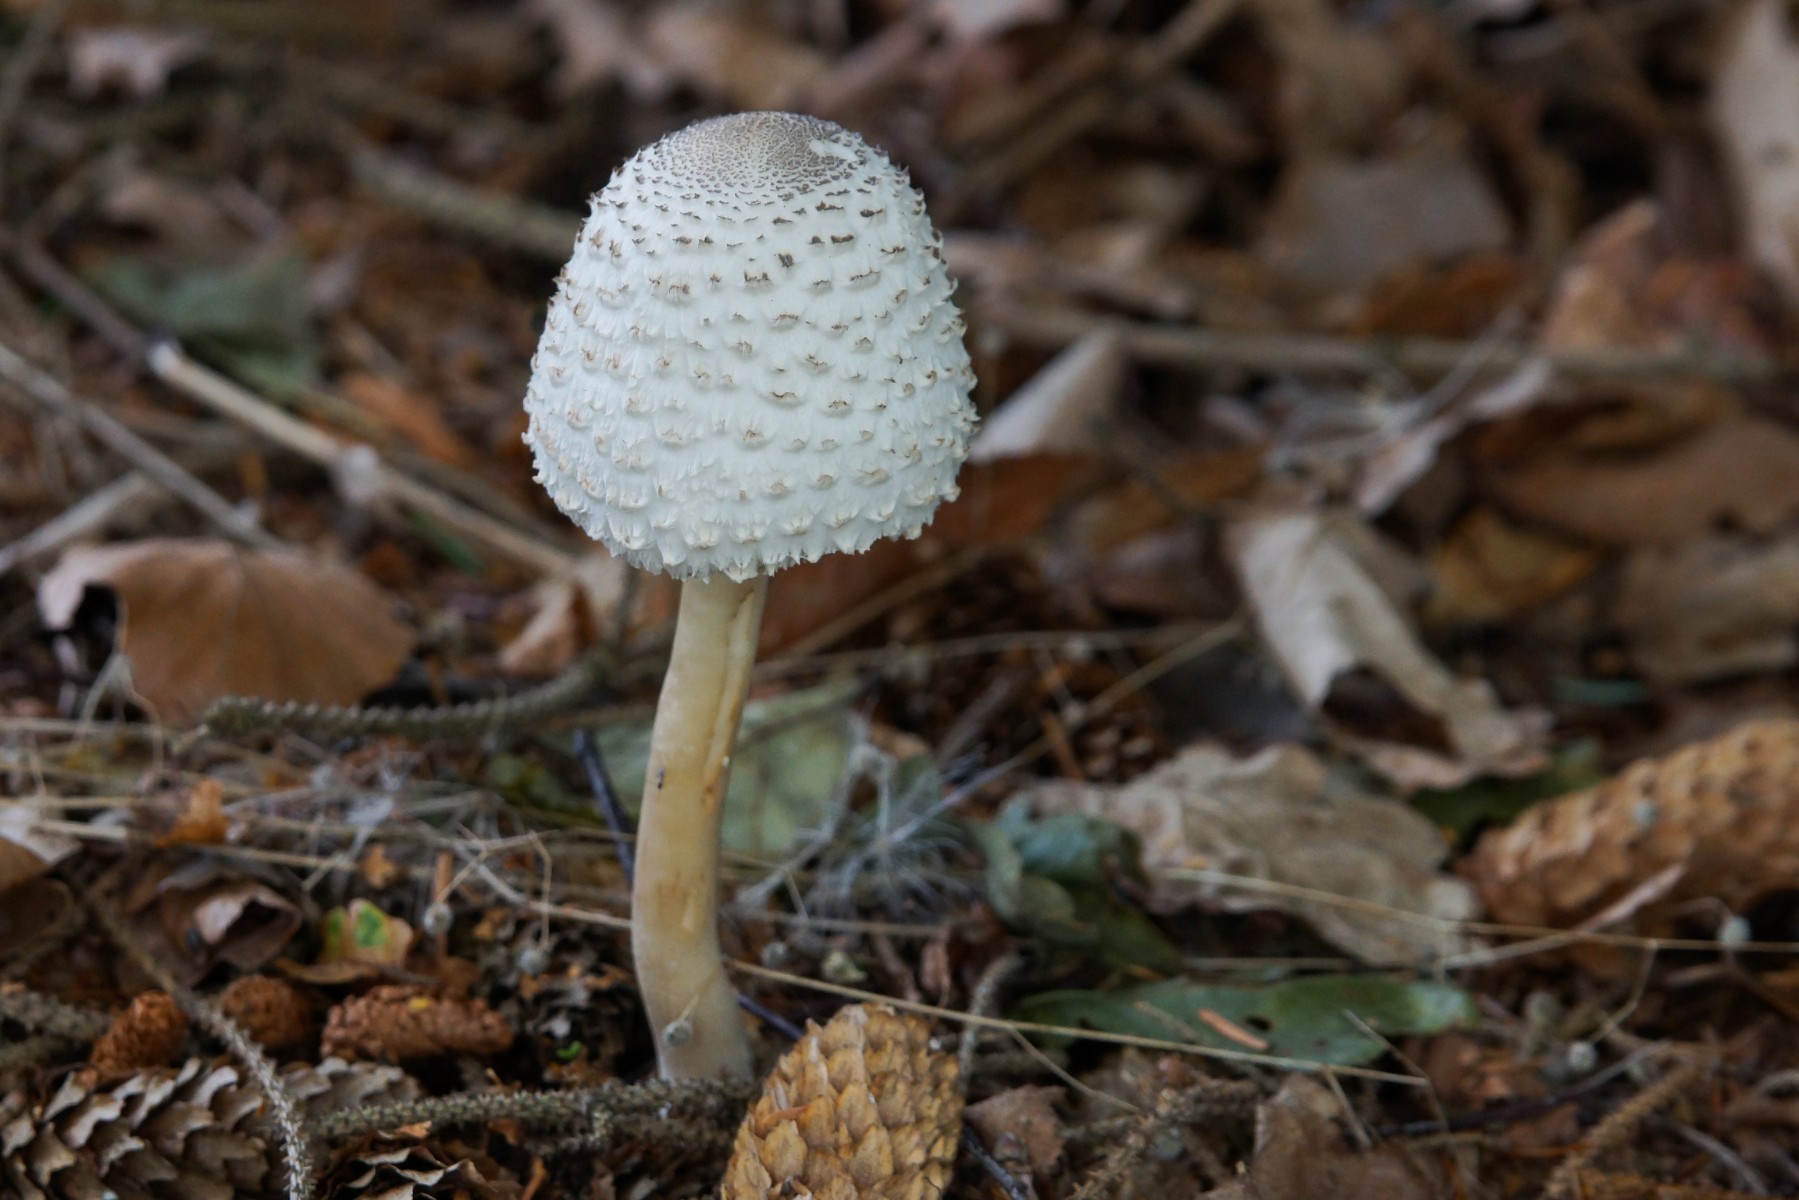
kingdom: Fungi
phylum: Basidiomycota
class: Agaricomycetes
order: Agaricales
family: Agaricaceae
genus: Leucoagaricus
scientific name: Leucoagaricus nympharum
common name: gran-silkehat
